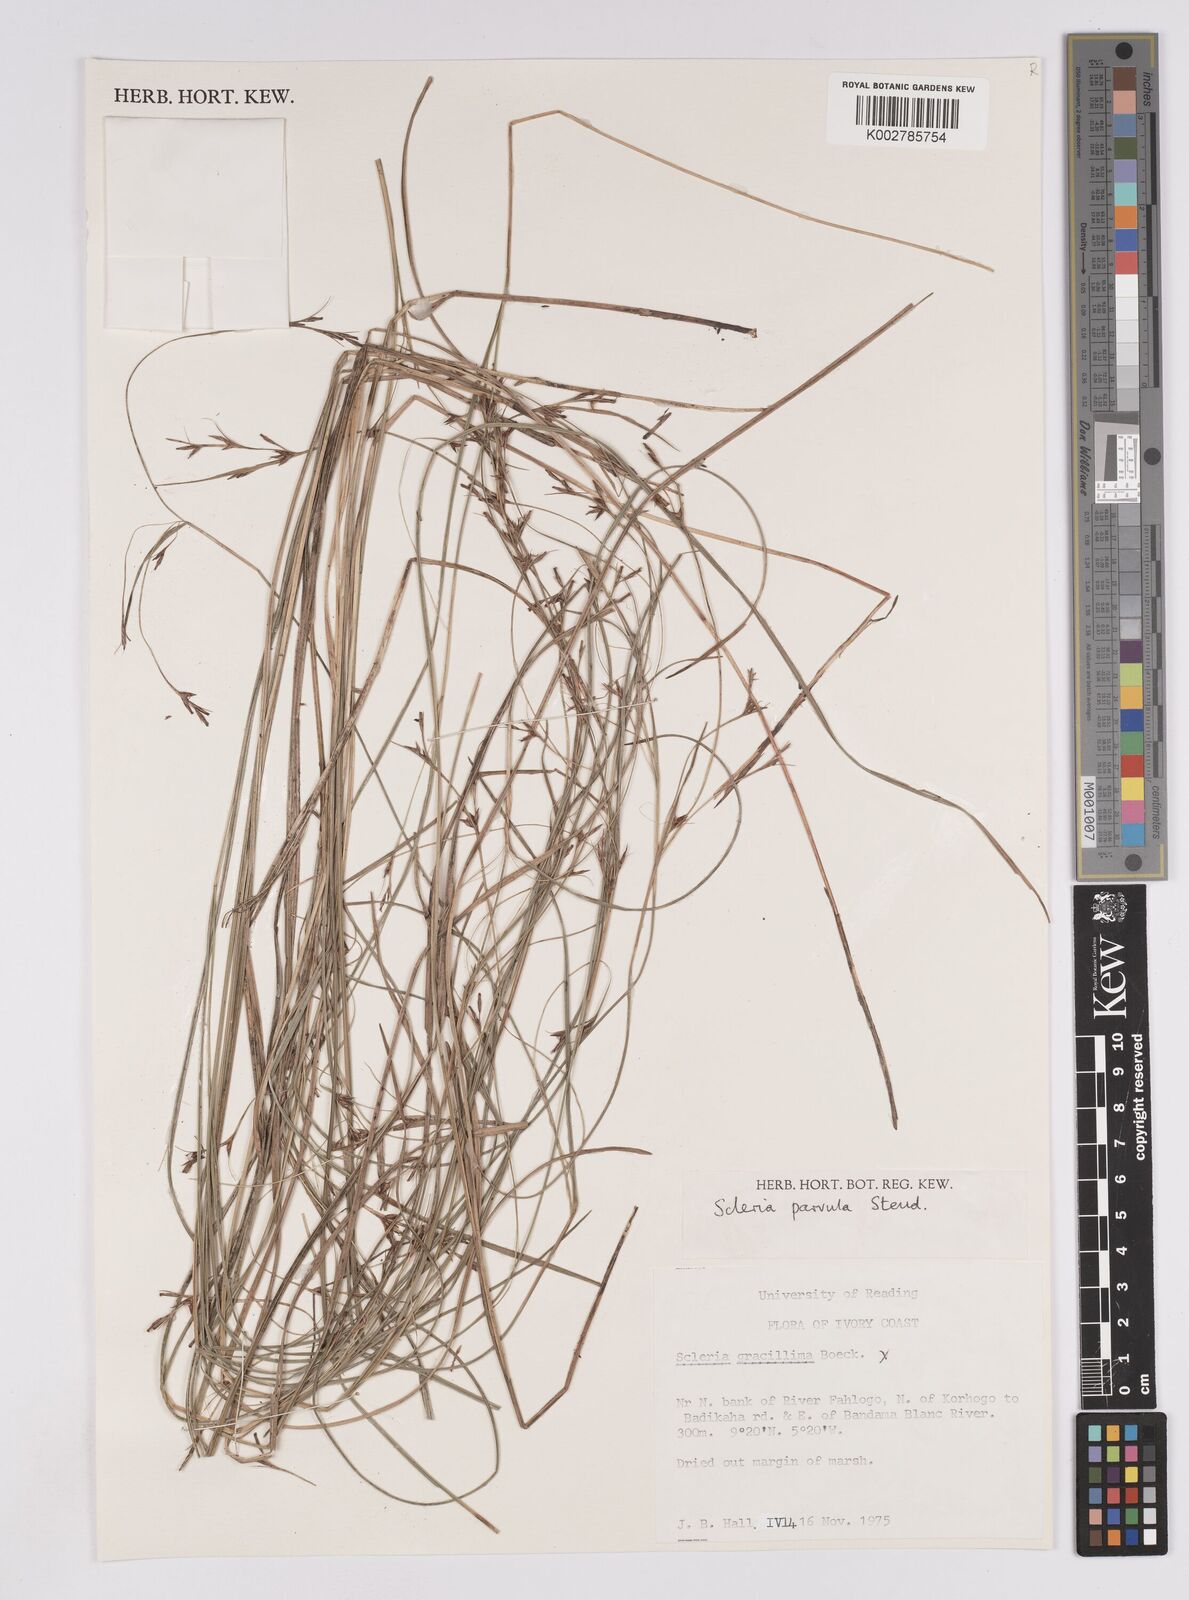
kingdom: Plantae
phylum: Tracheophyta
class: Liliopsida
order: Poales
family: Cyperaceae
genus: Scleria
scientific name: Scleria parvula
